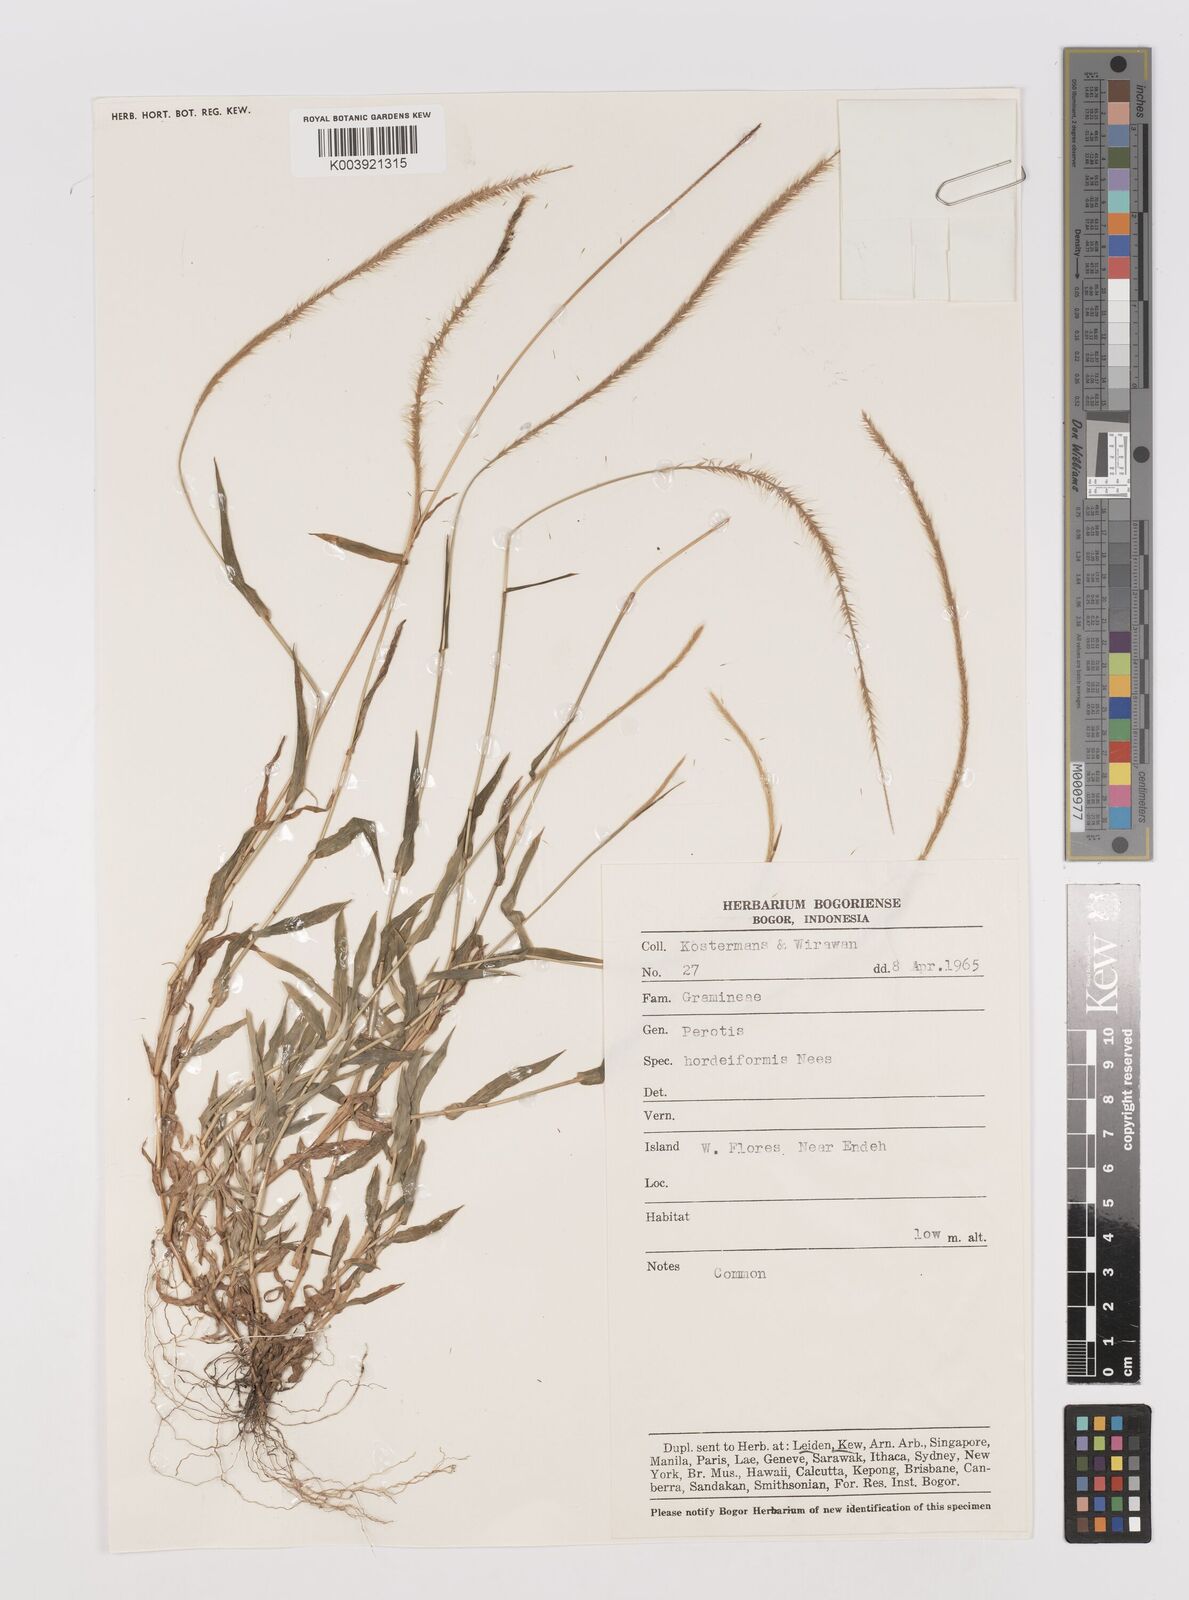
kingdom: Plantae
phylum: Tracheophyta
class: Liliopsida
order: Poales
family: Poaceae
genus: Perotis
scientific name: Perotis indica
